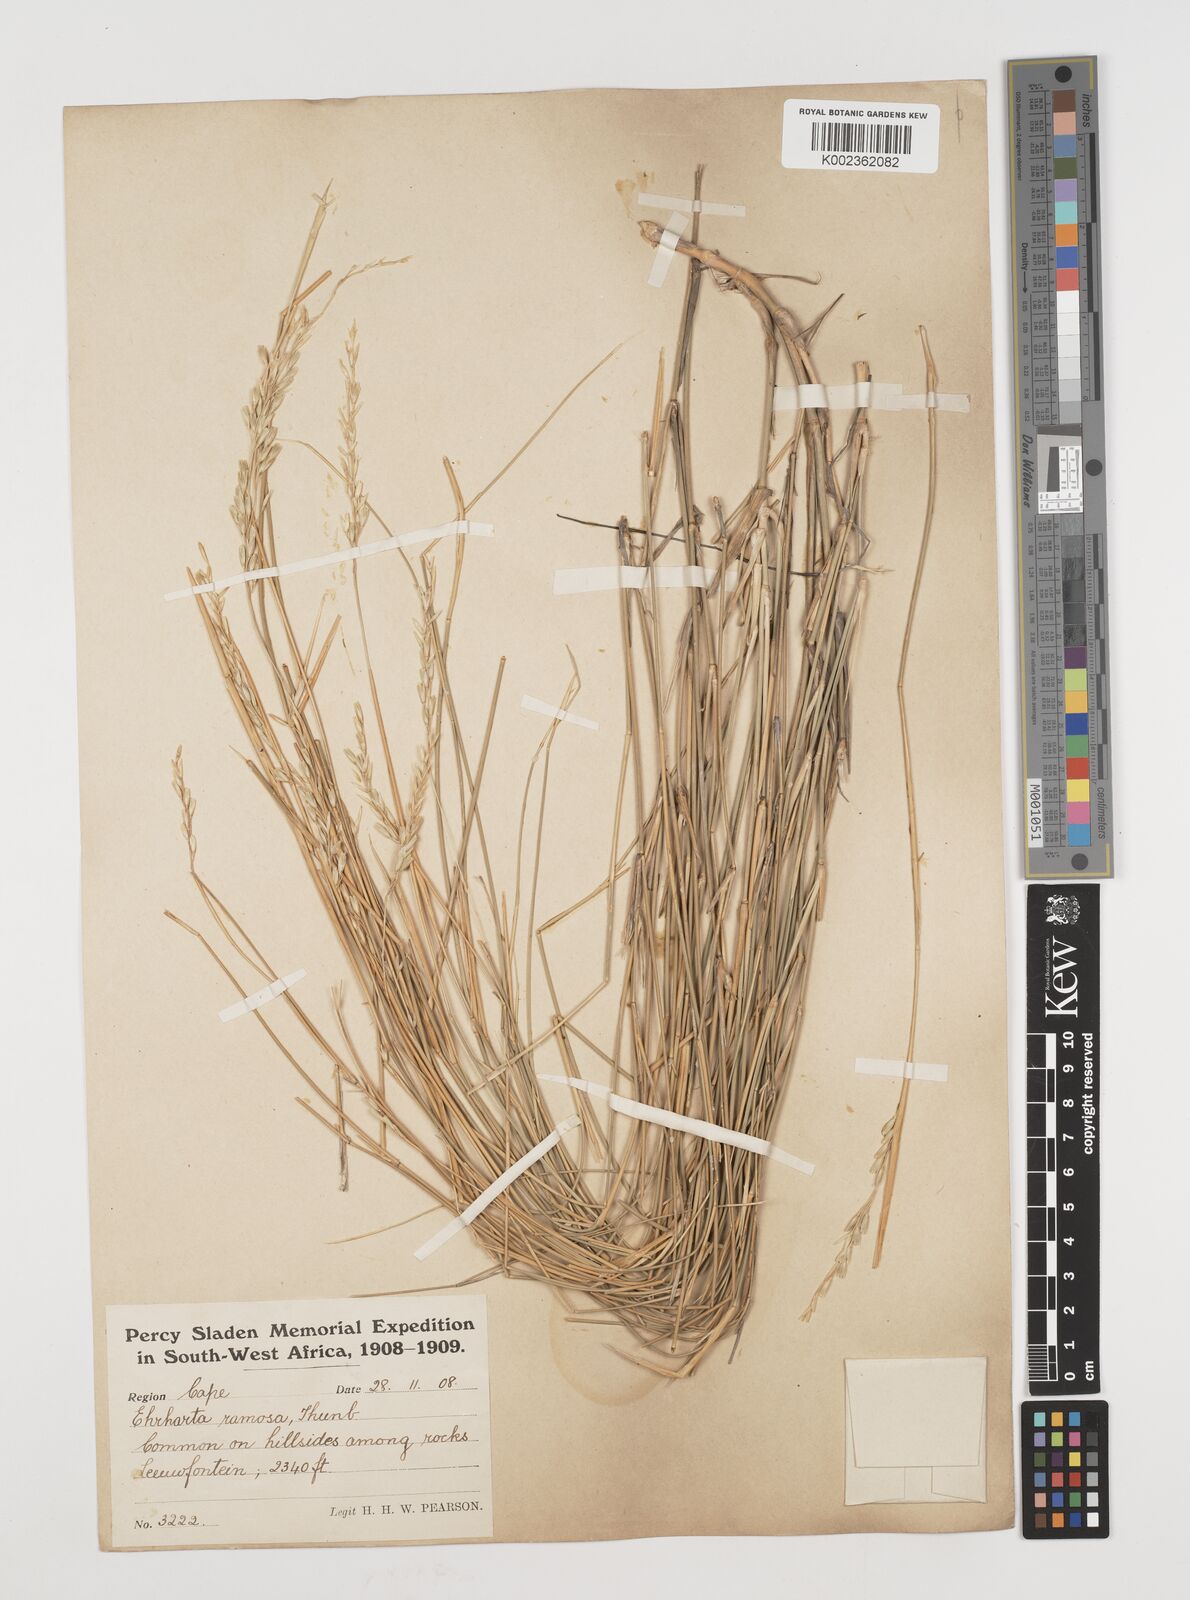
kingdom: Plantae
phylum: Tracheophyta
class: Liliopsida
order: Poales
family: Poaceae
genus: Ehrharta
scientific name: Ehrharta digyna
